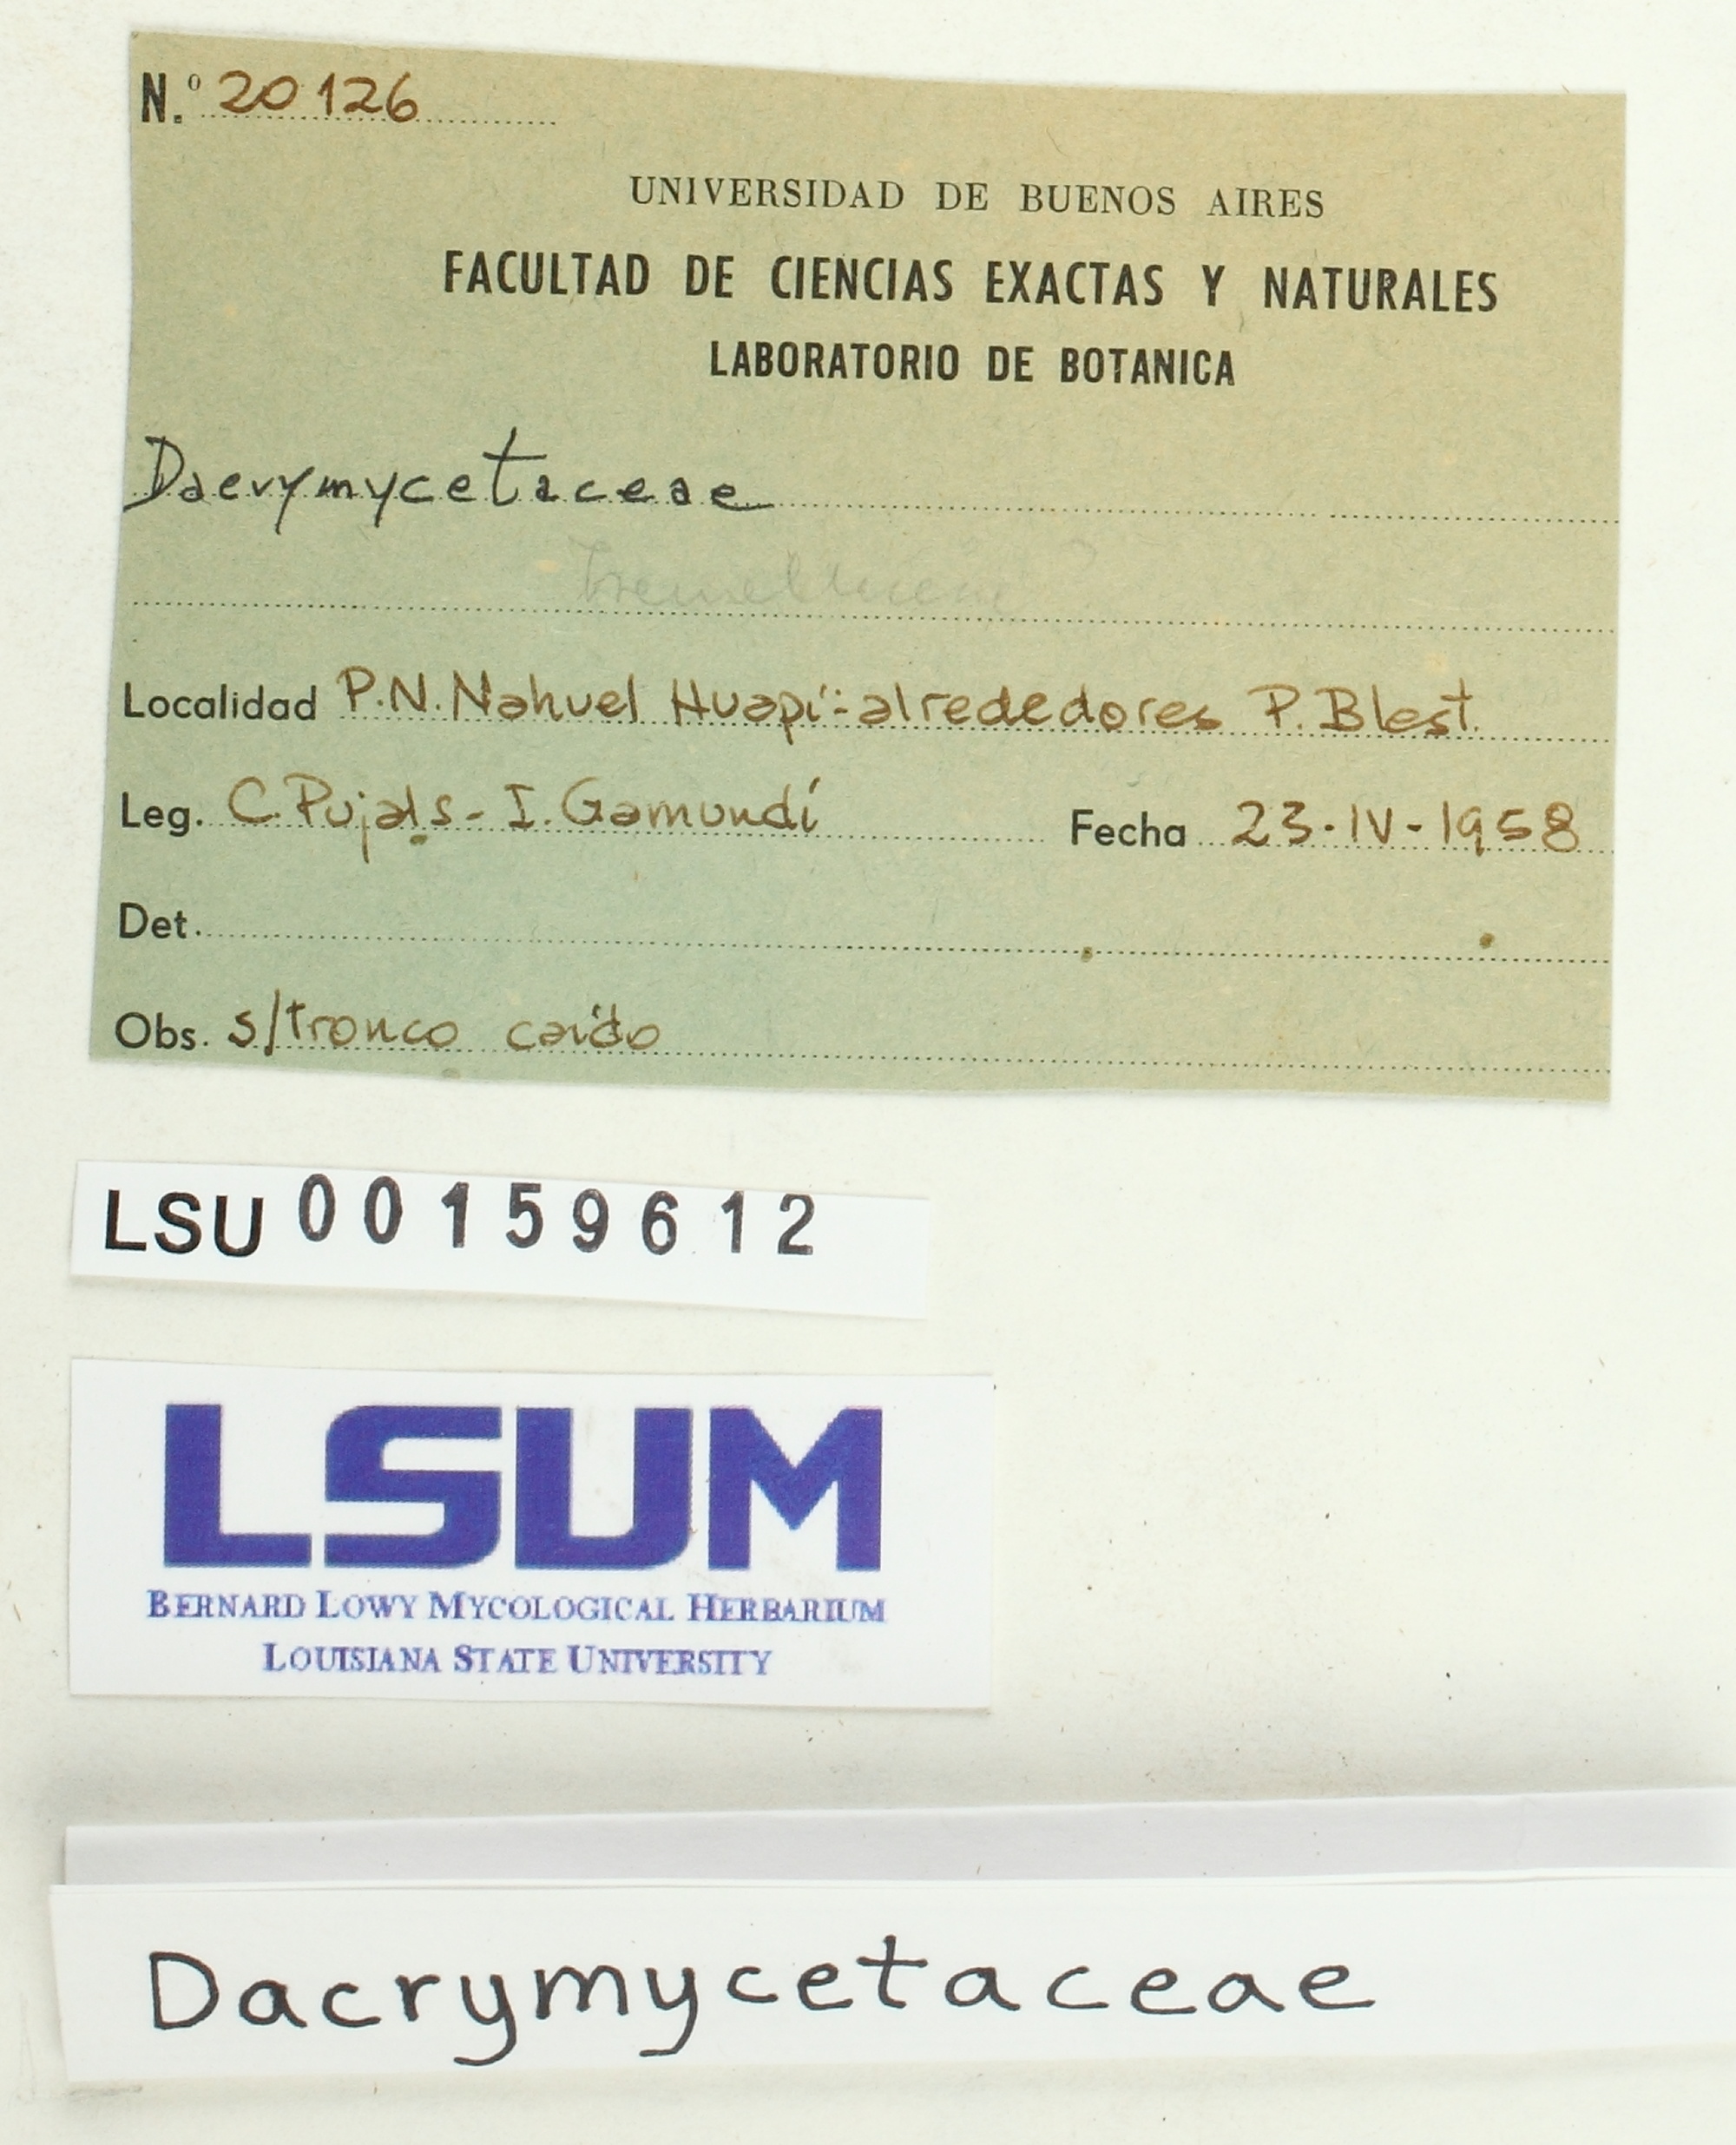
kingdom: Fungi
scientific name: Fungi
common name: Fungi
